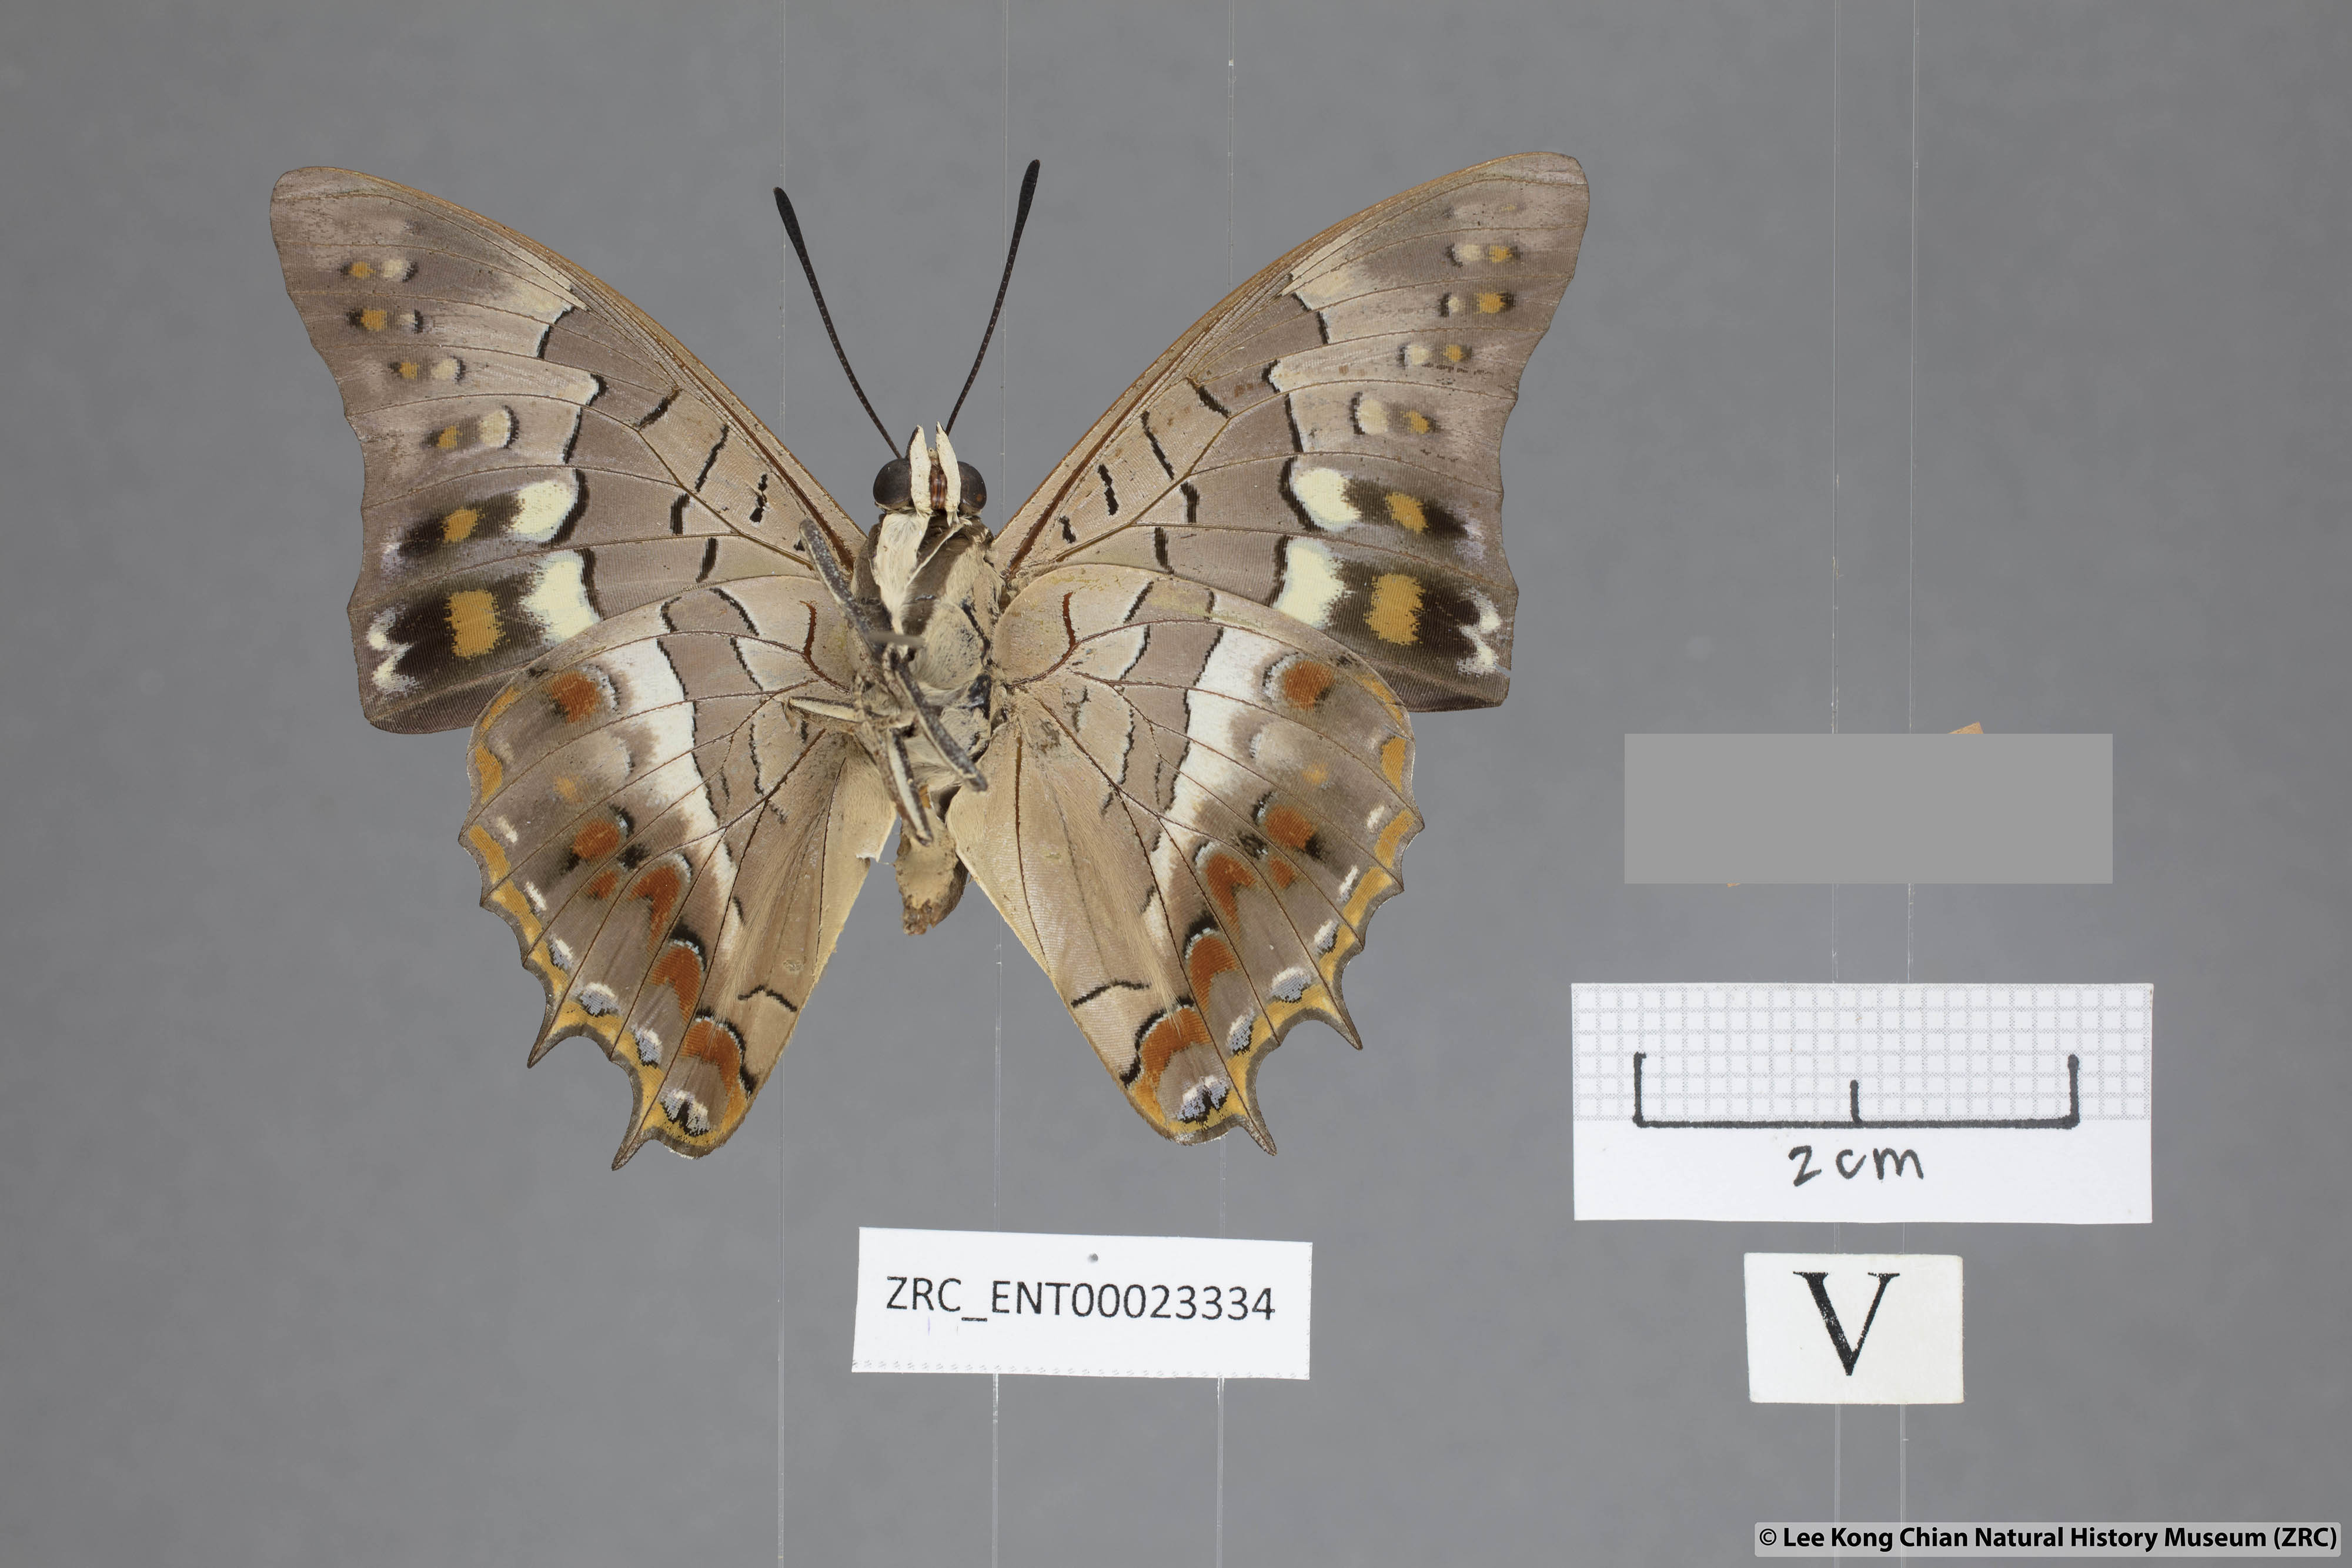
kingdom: Animalia
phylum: Arthropoda
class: Insecta
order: Lepidoptera
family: Nymphalidae
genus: Charaxes
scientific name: Charaxes solon
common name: Black rajah
